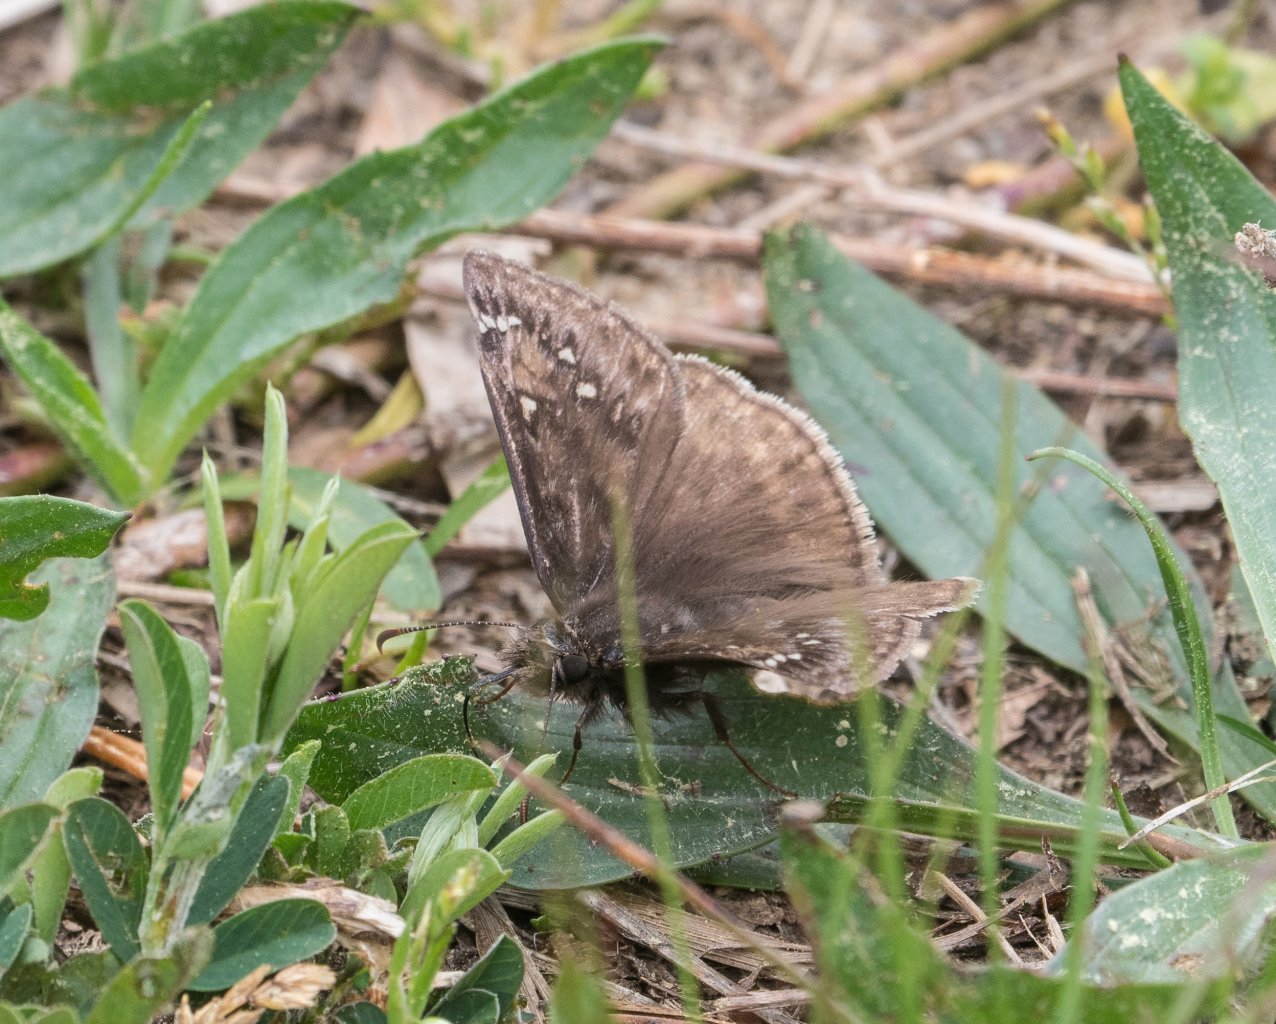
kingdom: Animalia
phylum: Arthropoda
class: Insecta
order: Lepidoptera
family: Hesperiidae
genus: Gesta
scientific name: Gesta
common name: Horace's Duskywing
